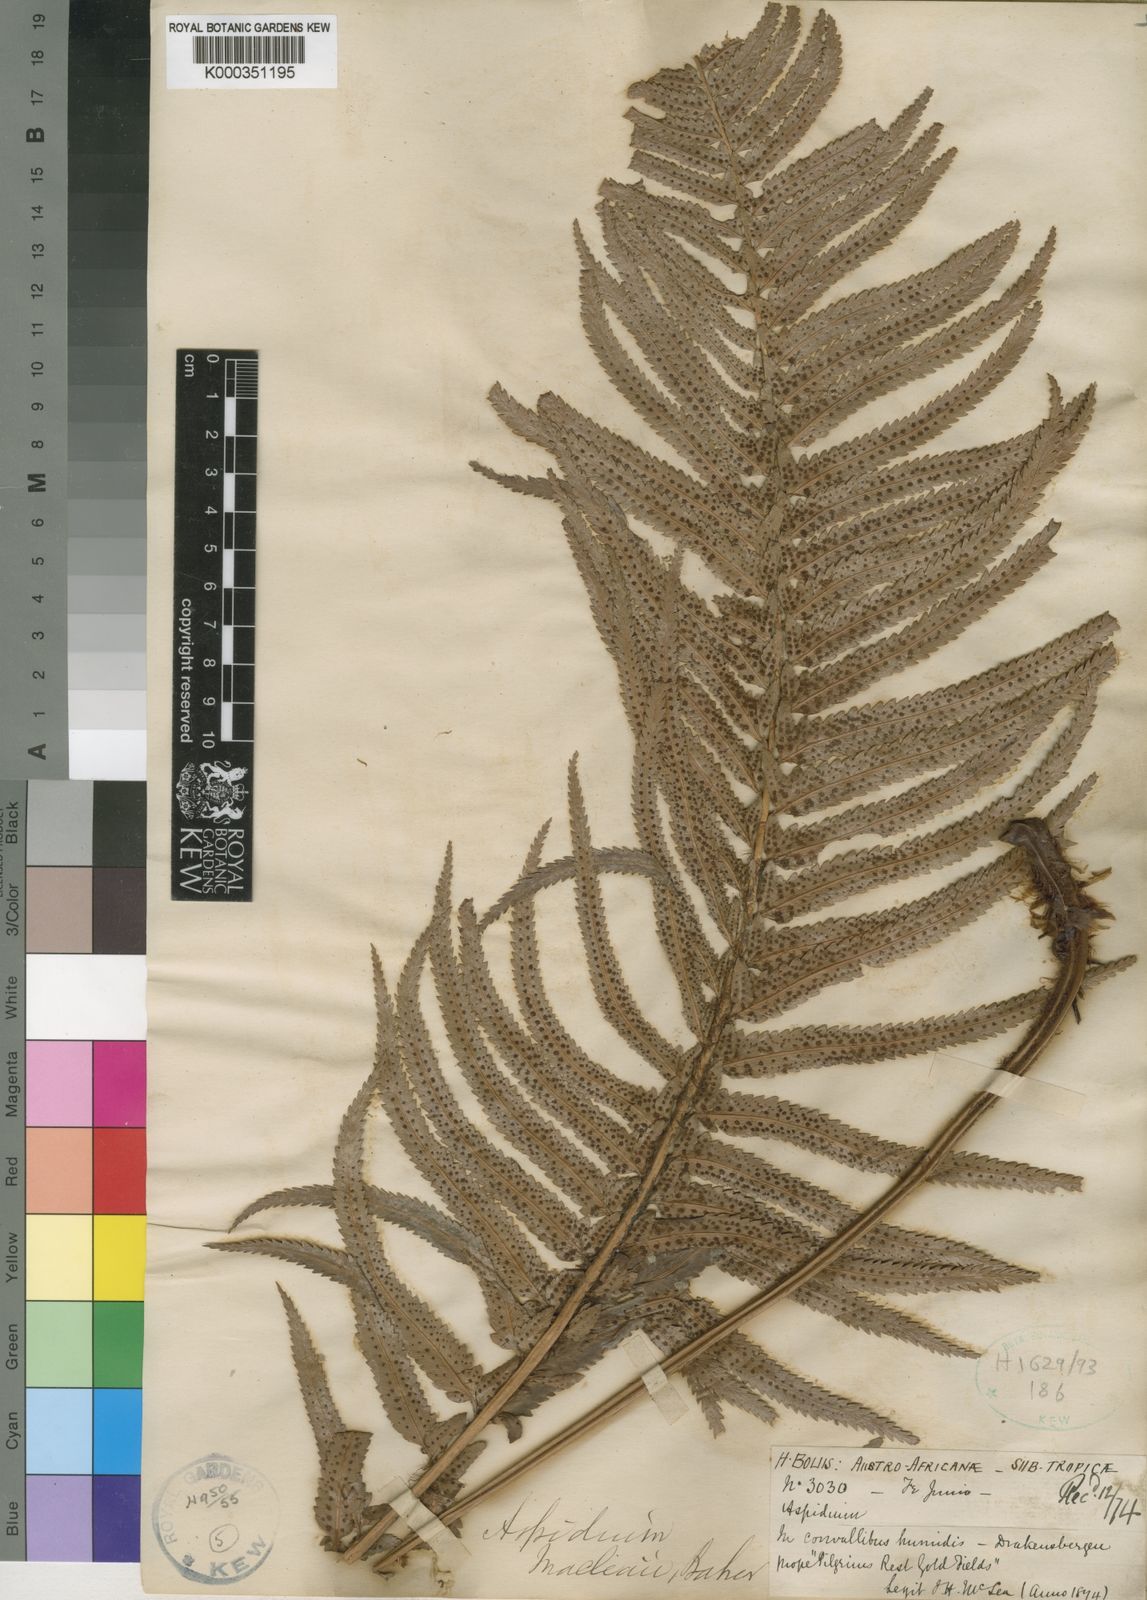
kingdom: Plantae
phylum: Tracheophyta
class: Polypodiopsida
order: Polypodiales
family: Dryopteridaceae
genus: Polystichum
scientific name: Polystichum
